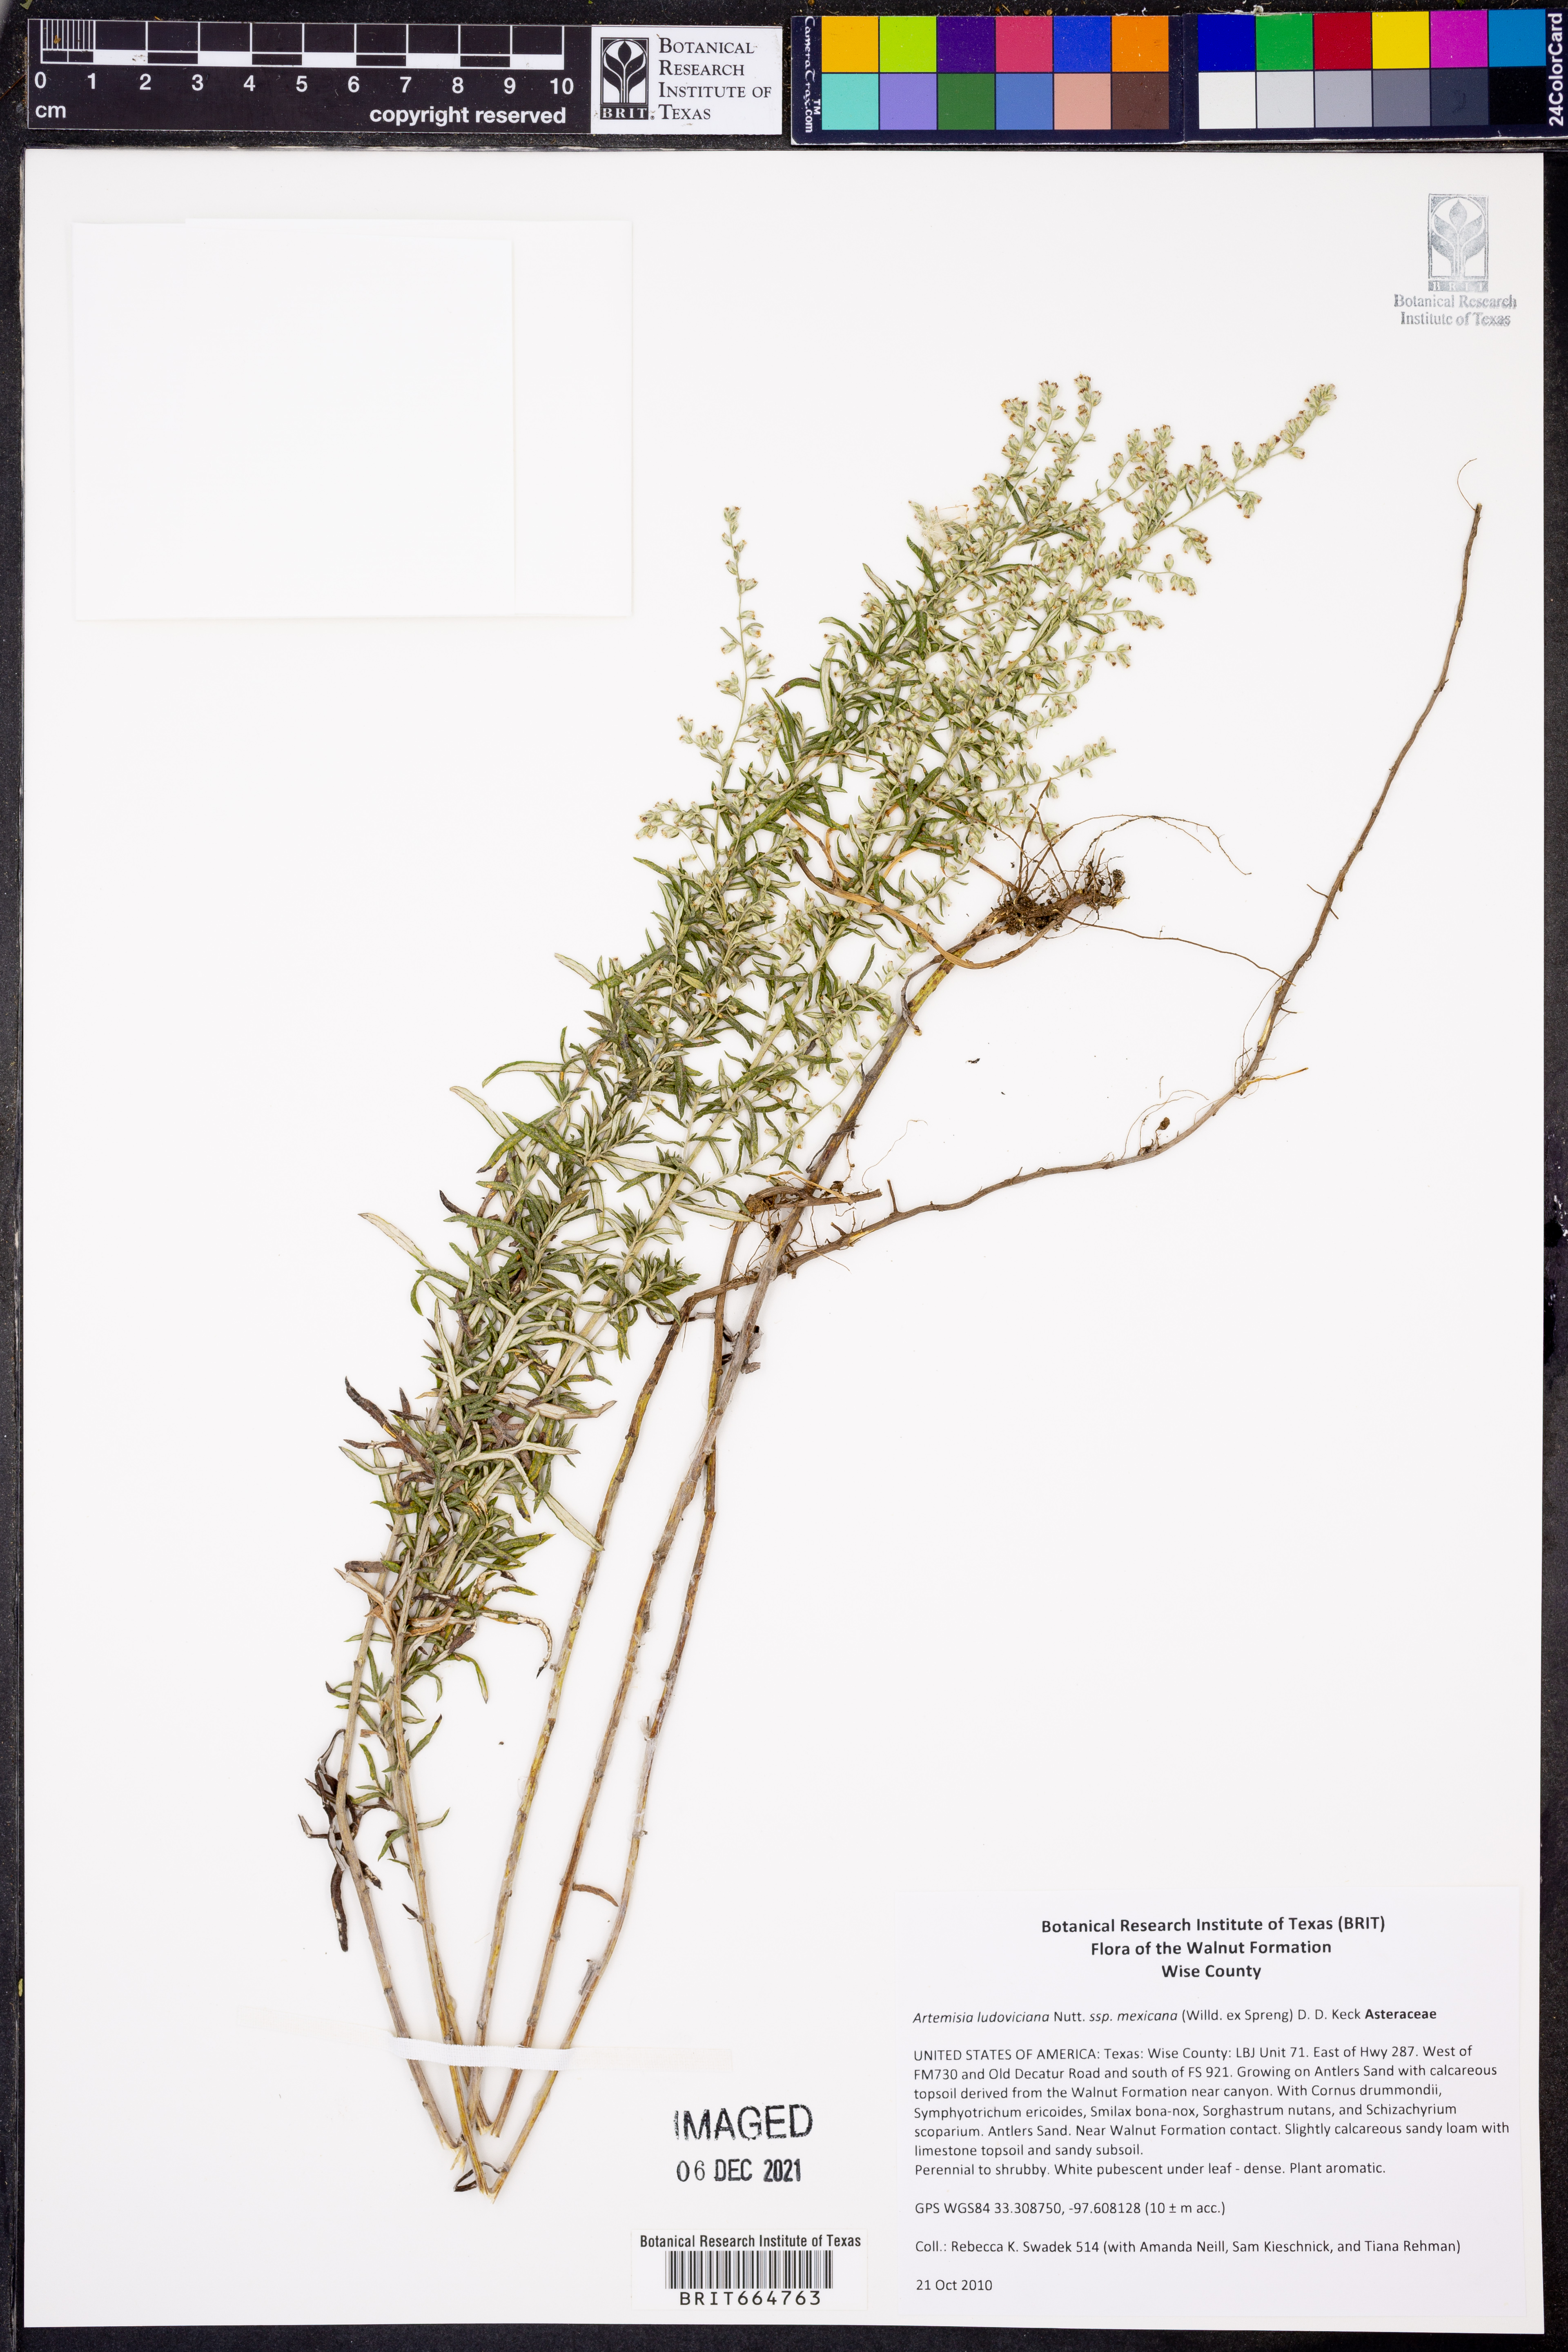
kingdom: Plantae
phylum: Tracheophyta
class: Magnoliopsida
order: Asterales
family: Asteraceae
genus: Artemisia
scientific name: Artemisia ludoviciana
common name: Western mugwort
